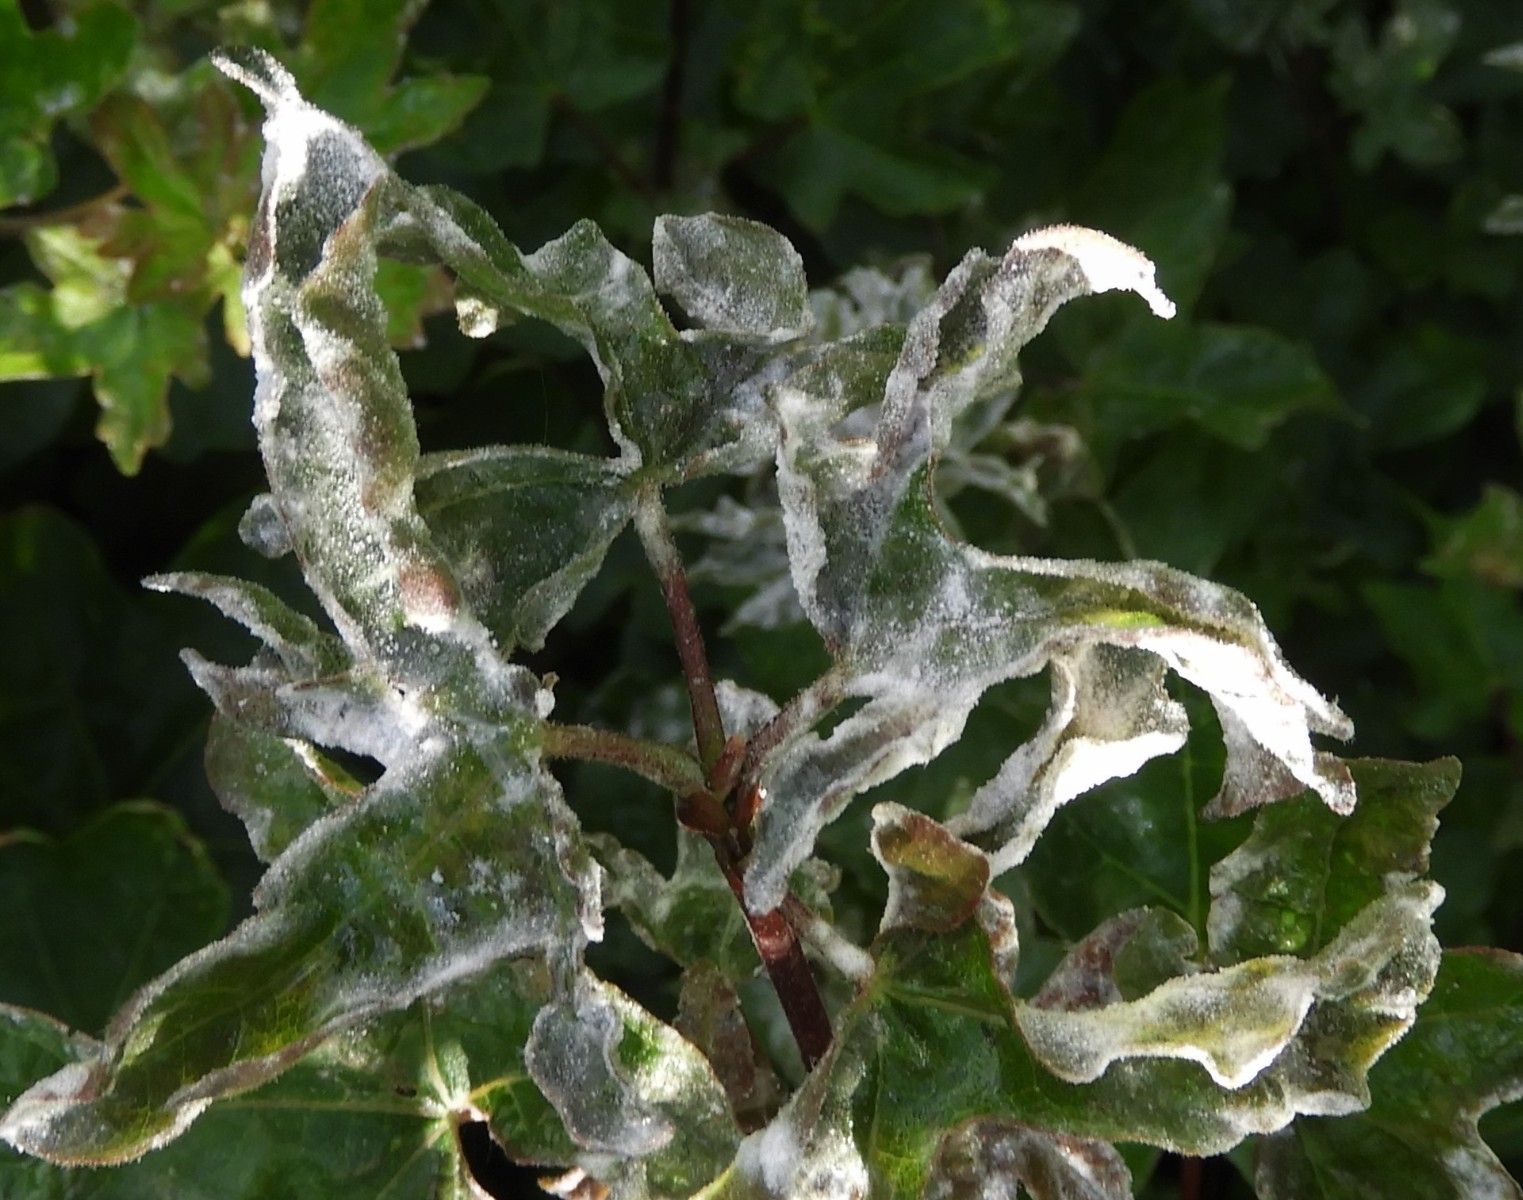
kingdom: Fungi
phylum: Ascomycota
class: Leotiomycetes
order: Helotiales
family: Erysiphaceae
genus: Sawadaea
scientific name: Sawadaea bicornis
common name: Maple mildew
